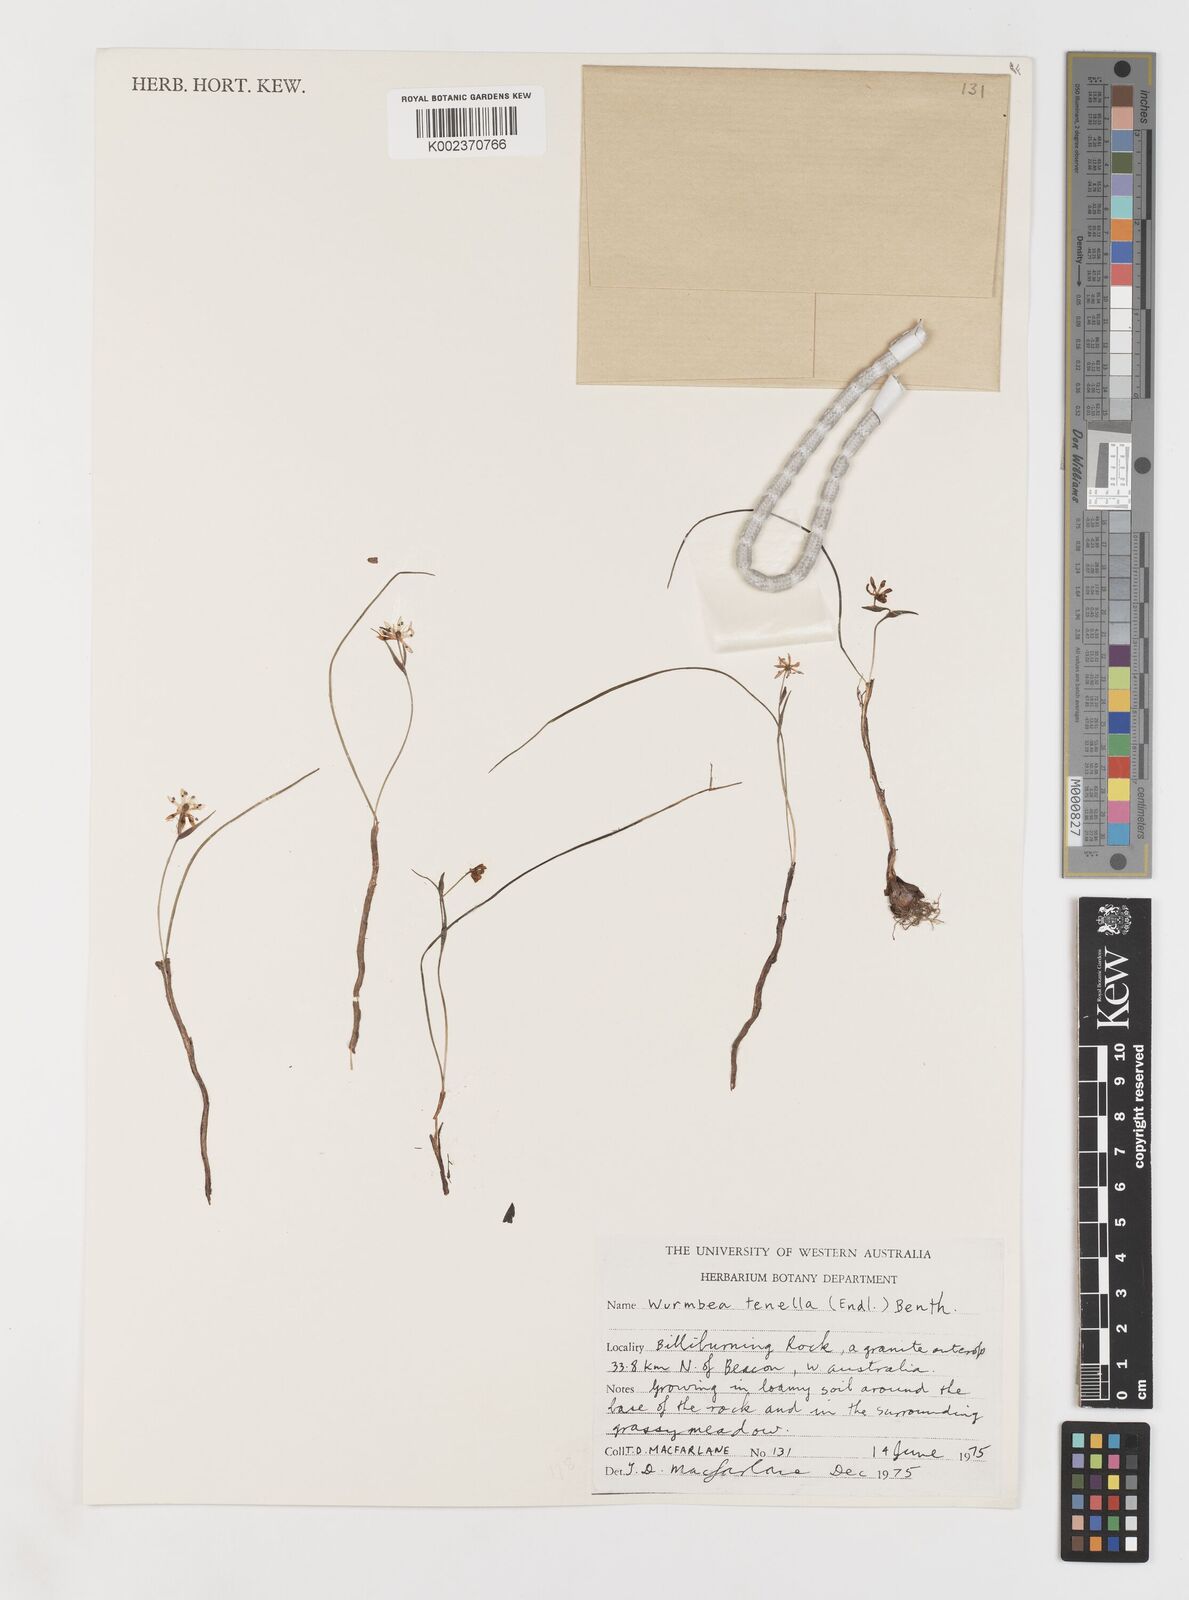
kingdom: Plantae
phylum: Tracheophyta
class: Liliopsida
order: Liliales
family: Colchicaceae
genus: Wurmbea
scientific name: Wurmbea tenella
